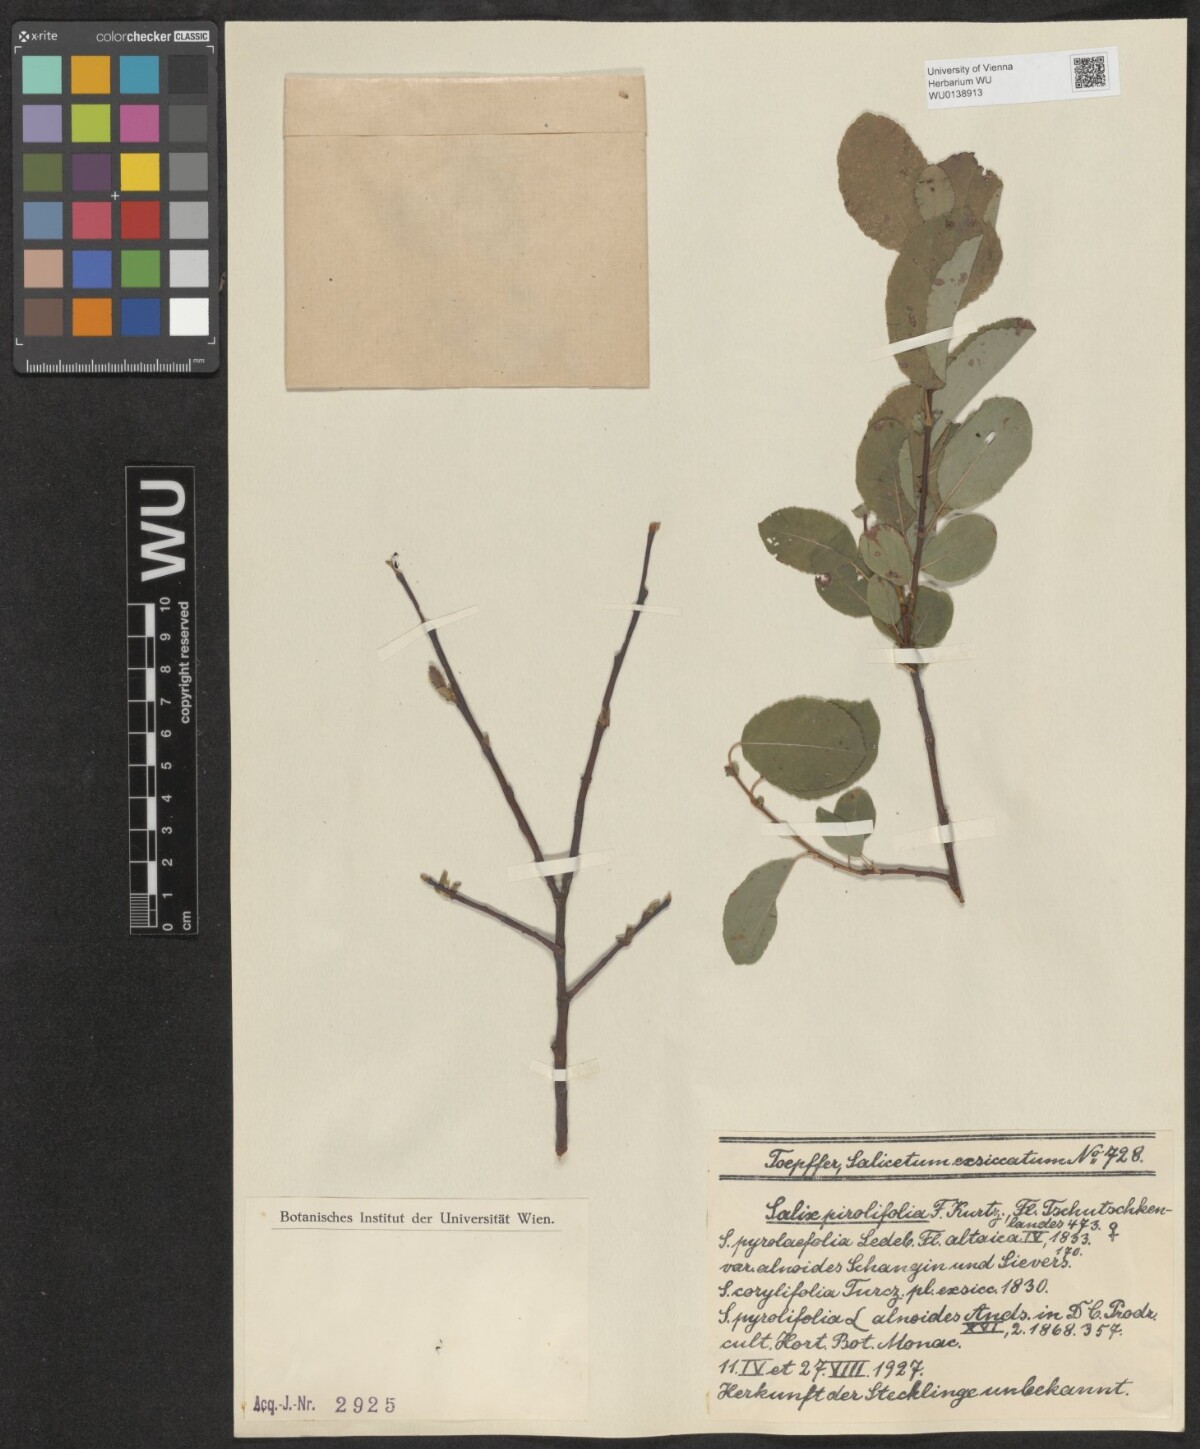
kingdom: Plantae
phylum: Tracheophyta
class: Magnoliopsida
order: Malpighiales
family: Salicaceae
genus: Salix
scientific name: Salix pyrolifolia
